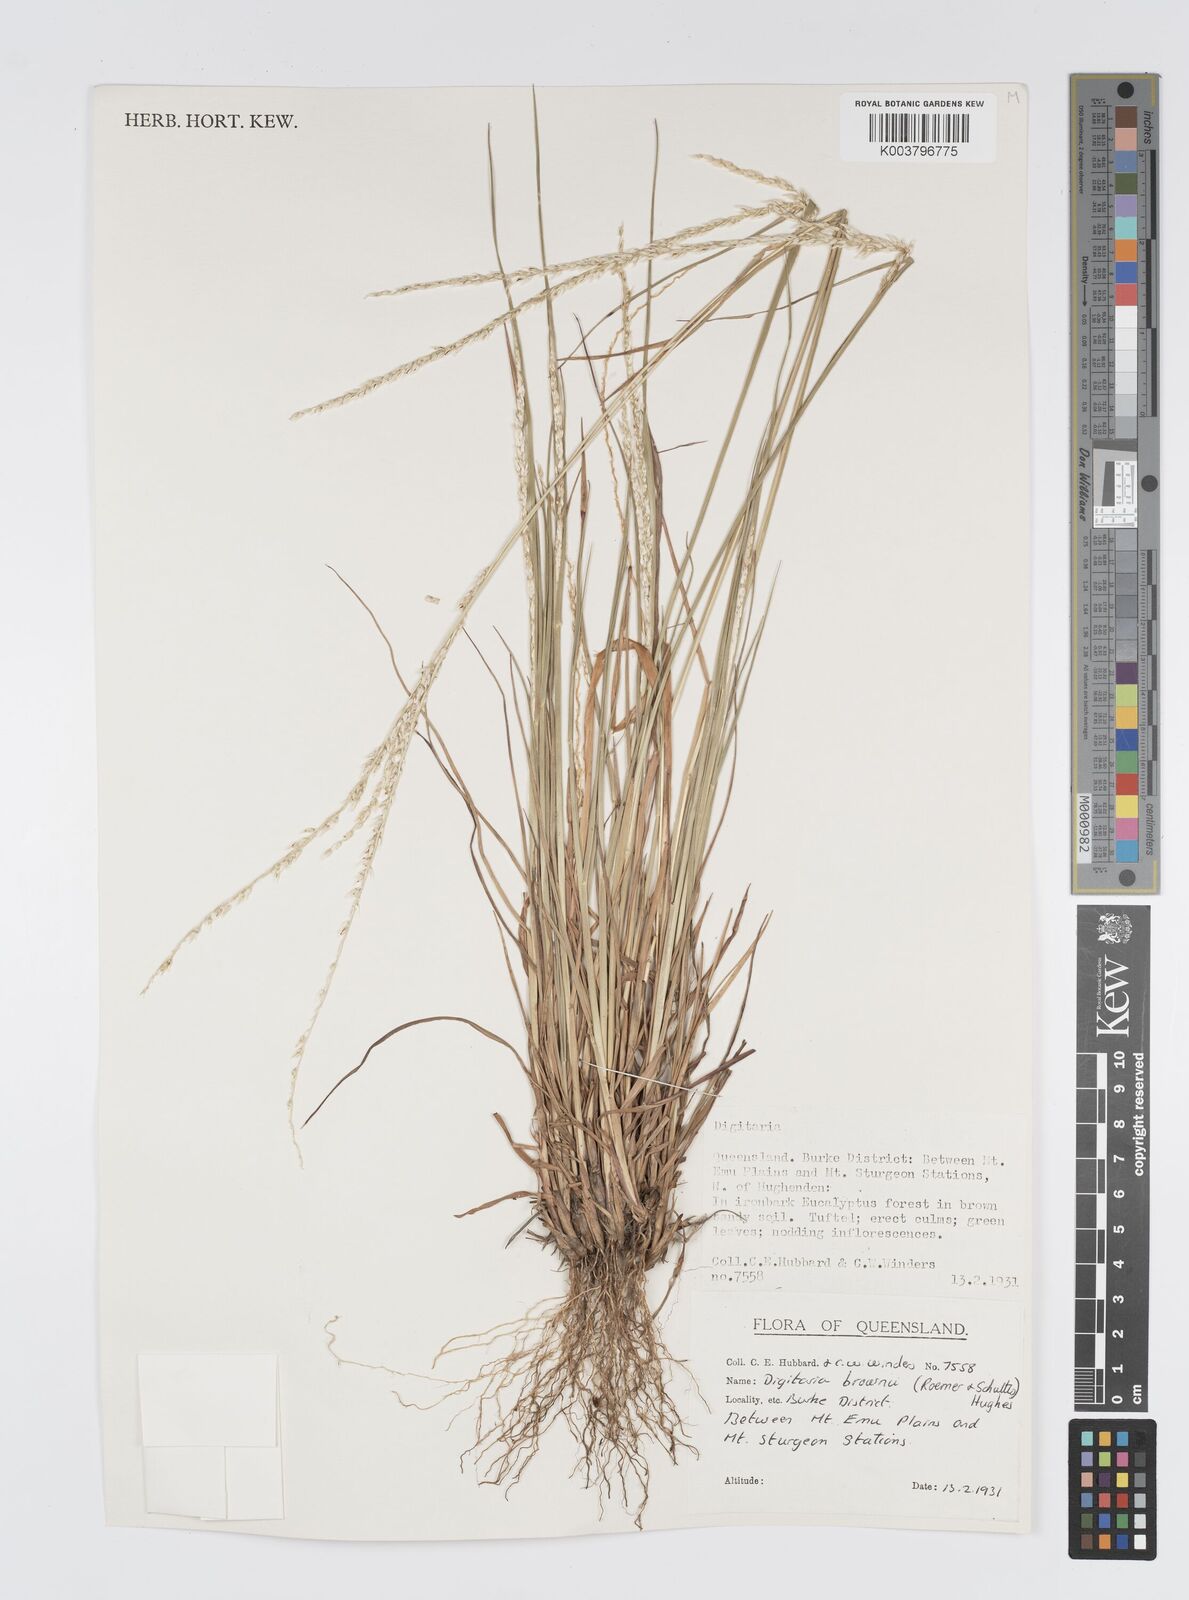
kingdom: Plantae
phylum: Tracheophyta
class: Liliopsida
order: Poales
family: Poaceae
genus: Digitaria
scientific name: Digitaria brownii
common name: Cotton grass
